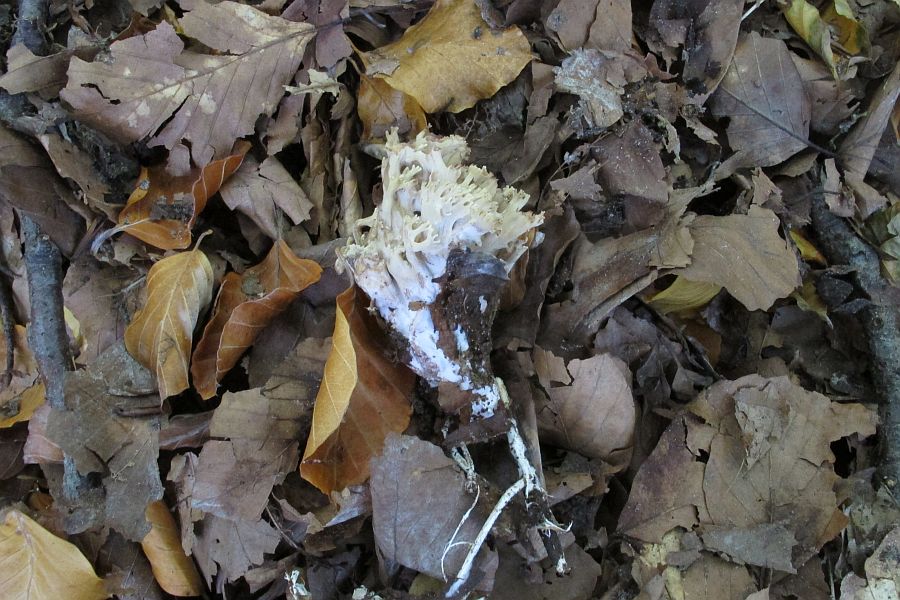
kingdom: Fungi
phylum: Basidiomycota
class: Agaricomycetes
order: Gomphales
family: Gomphaceae
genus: Ramaria
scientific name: Ramaria stricta
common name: rank koralsvamp
